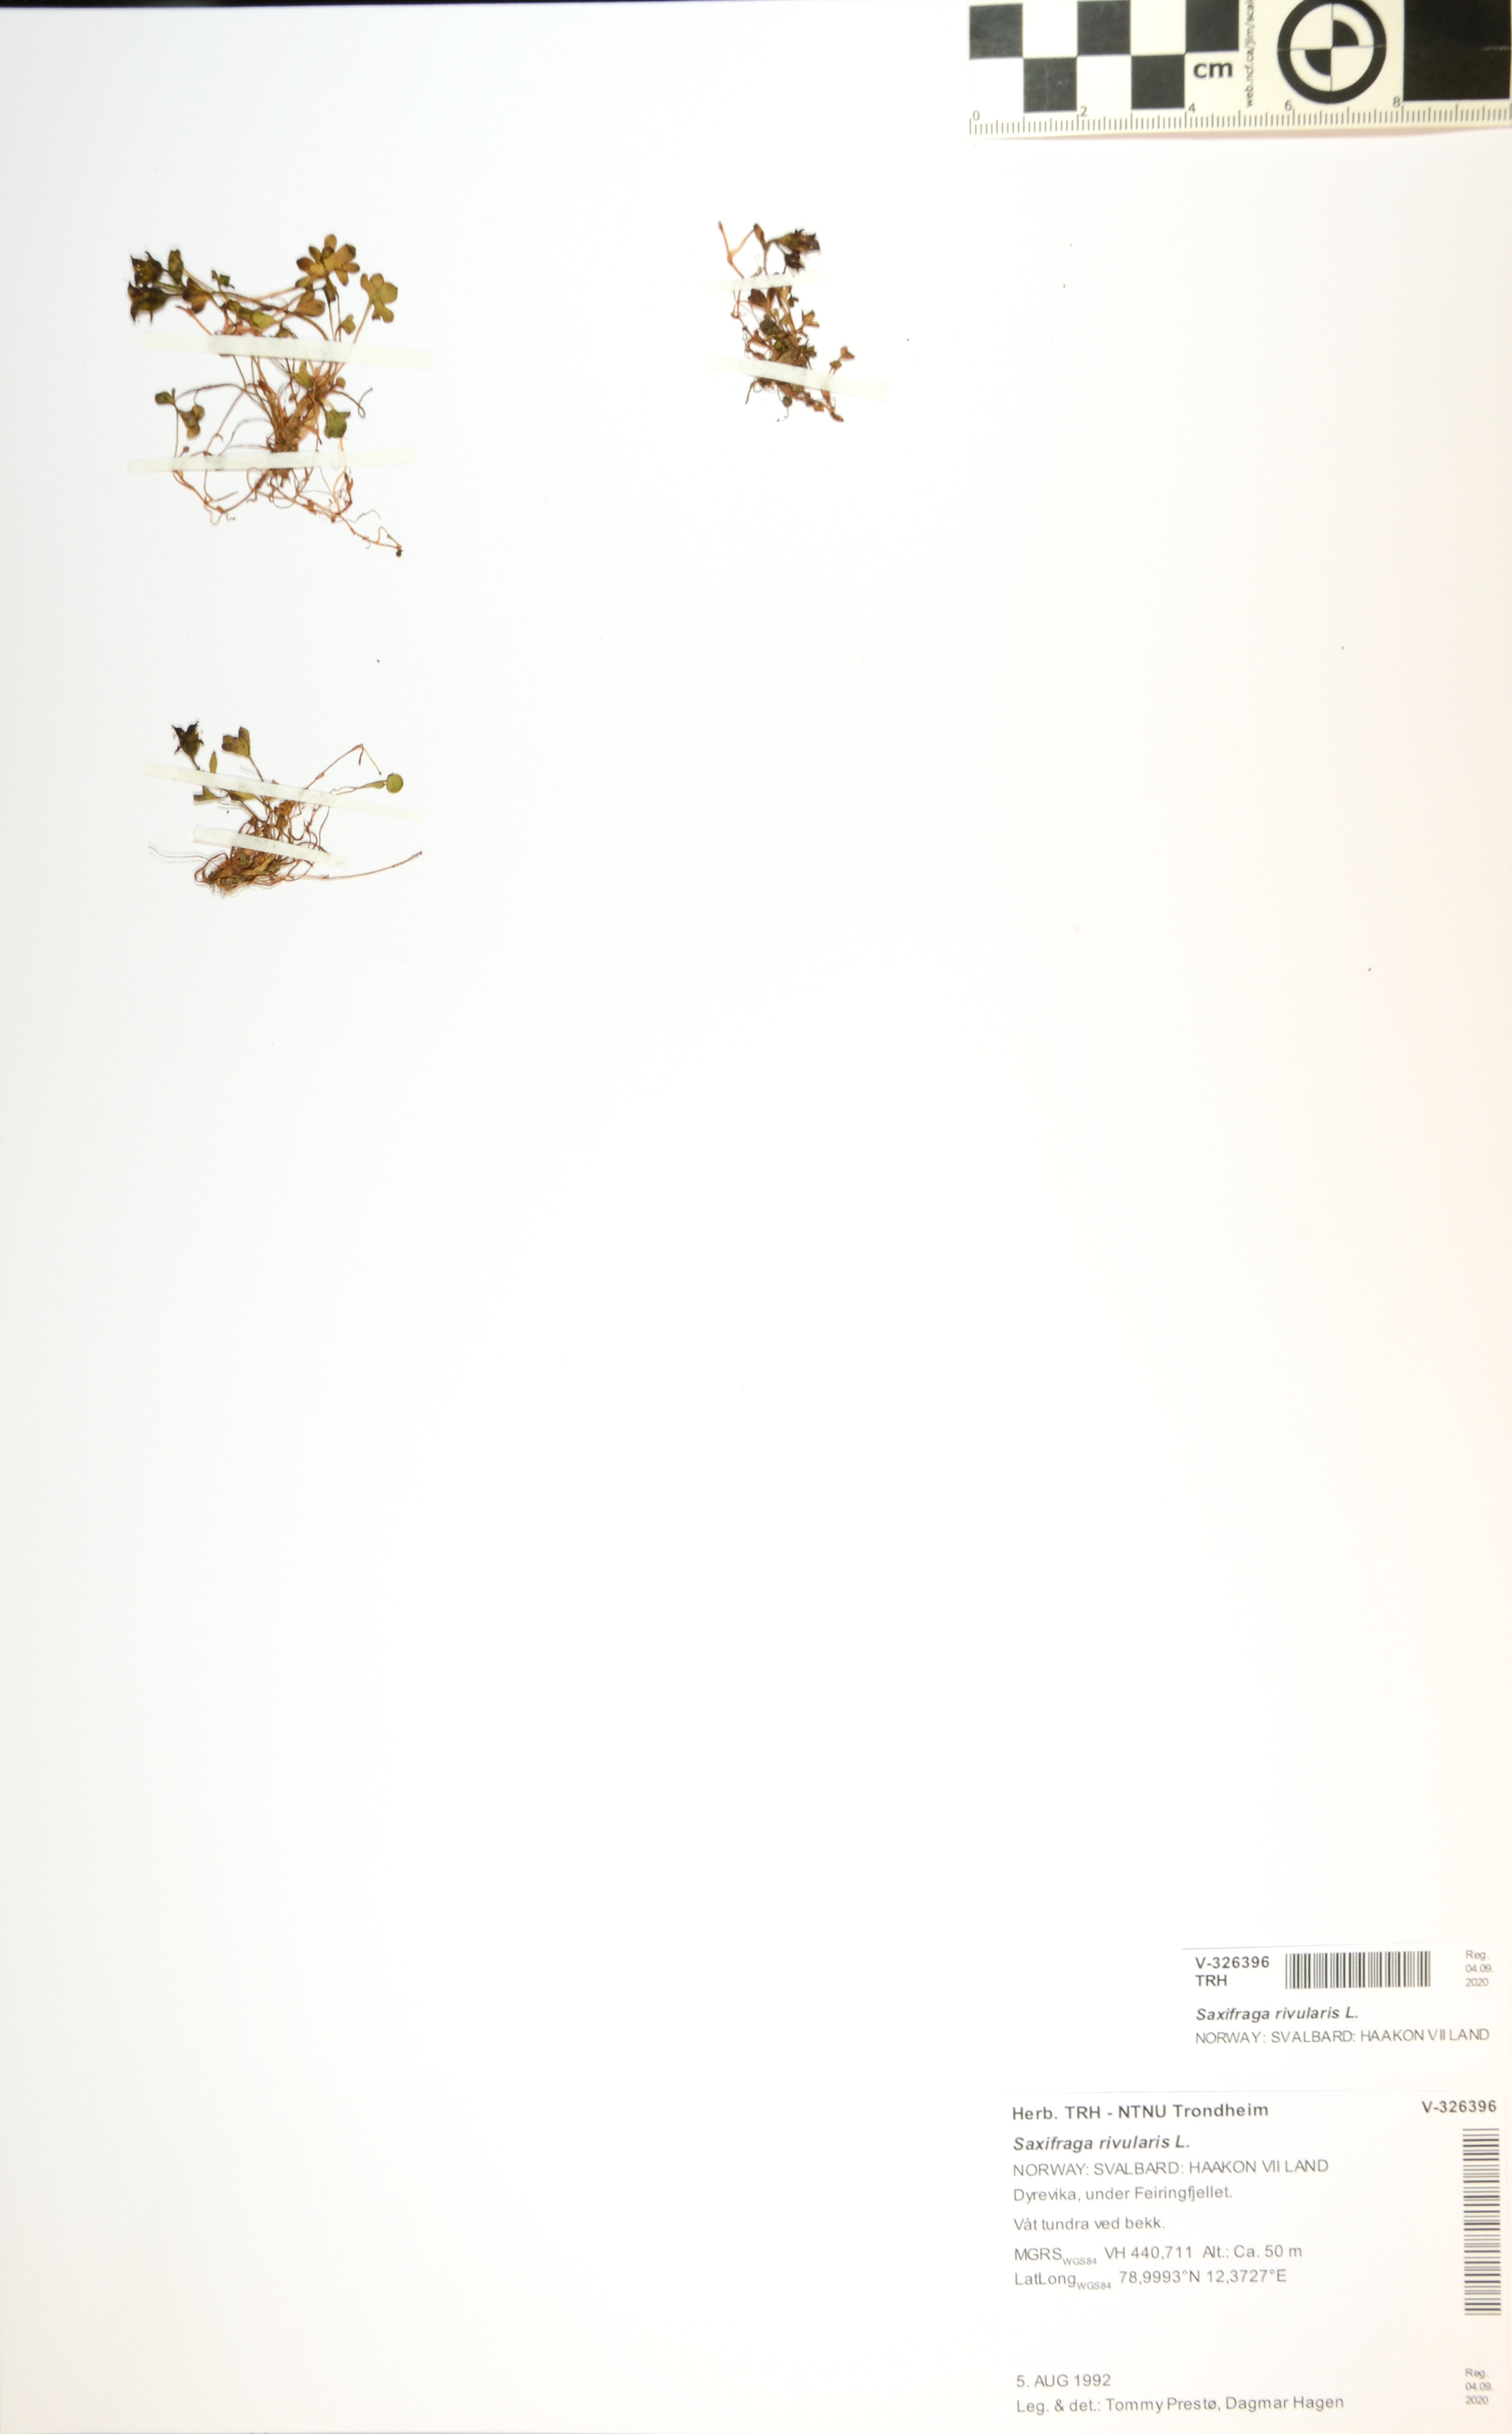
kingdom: Plantae
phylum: Tracheophyta
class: Magnoliopsida
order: Saxifragales
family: Saxifragaceae
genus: Saxifraga
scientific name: Saxifraga rivularis
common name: Highland saxifrage
